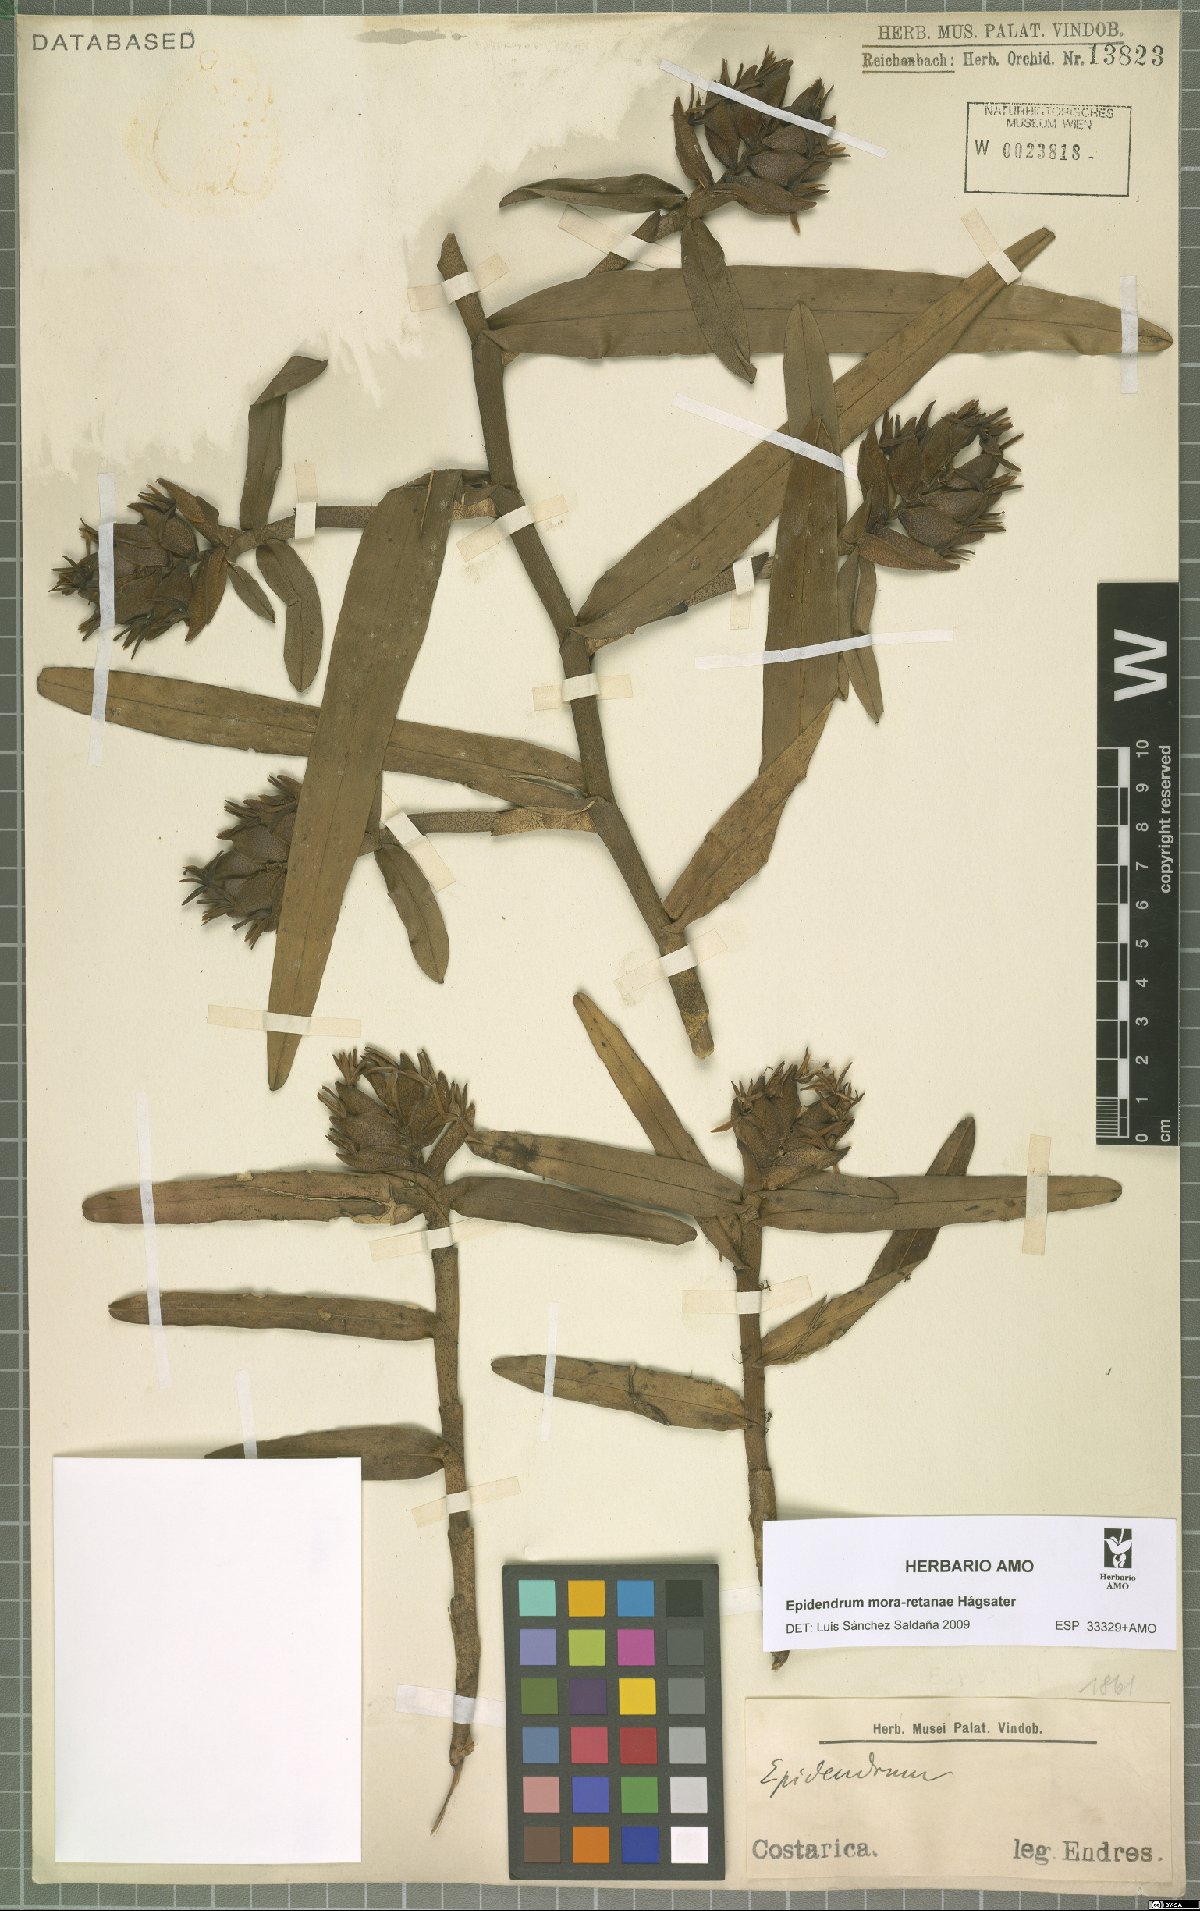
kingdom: Plantae
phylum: Tracheophyta
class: Liliopsida
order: Asparagales
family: Orchidaceae
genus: Epidendrum
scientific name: Epidendrum mora-retanae
